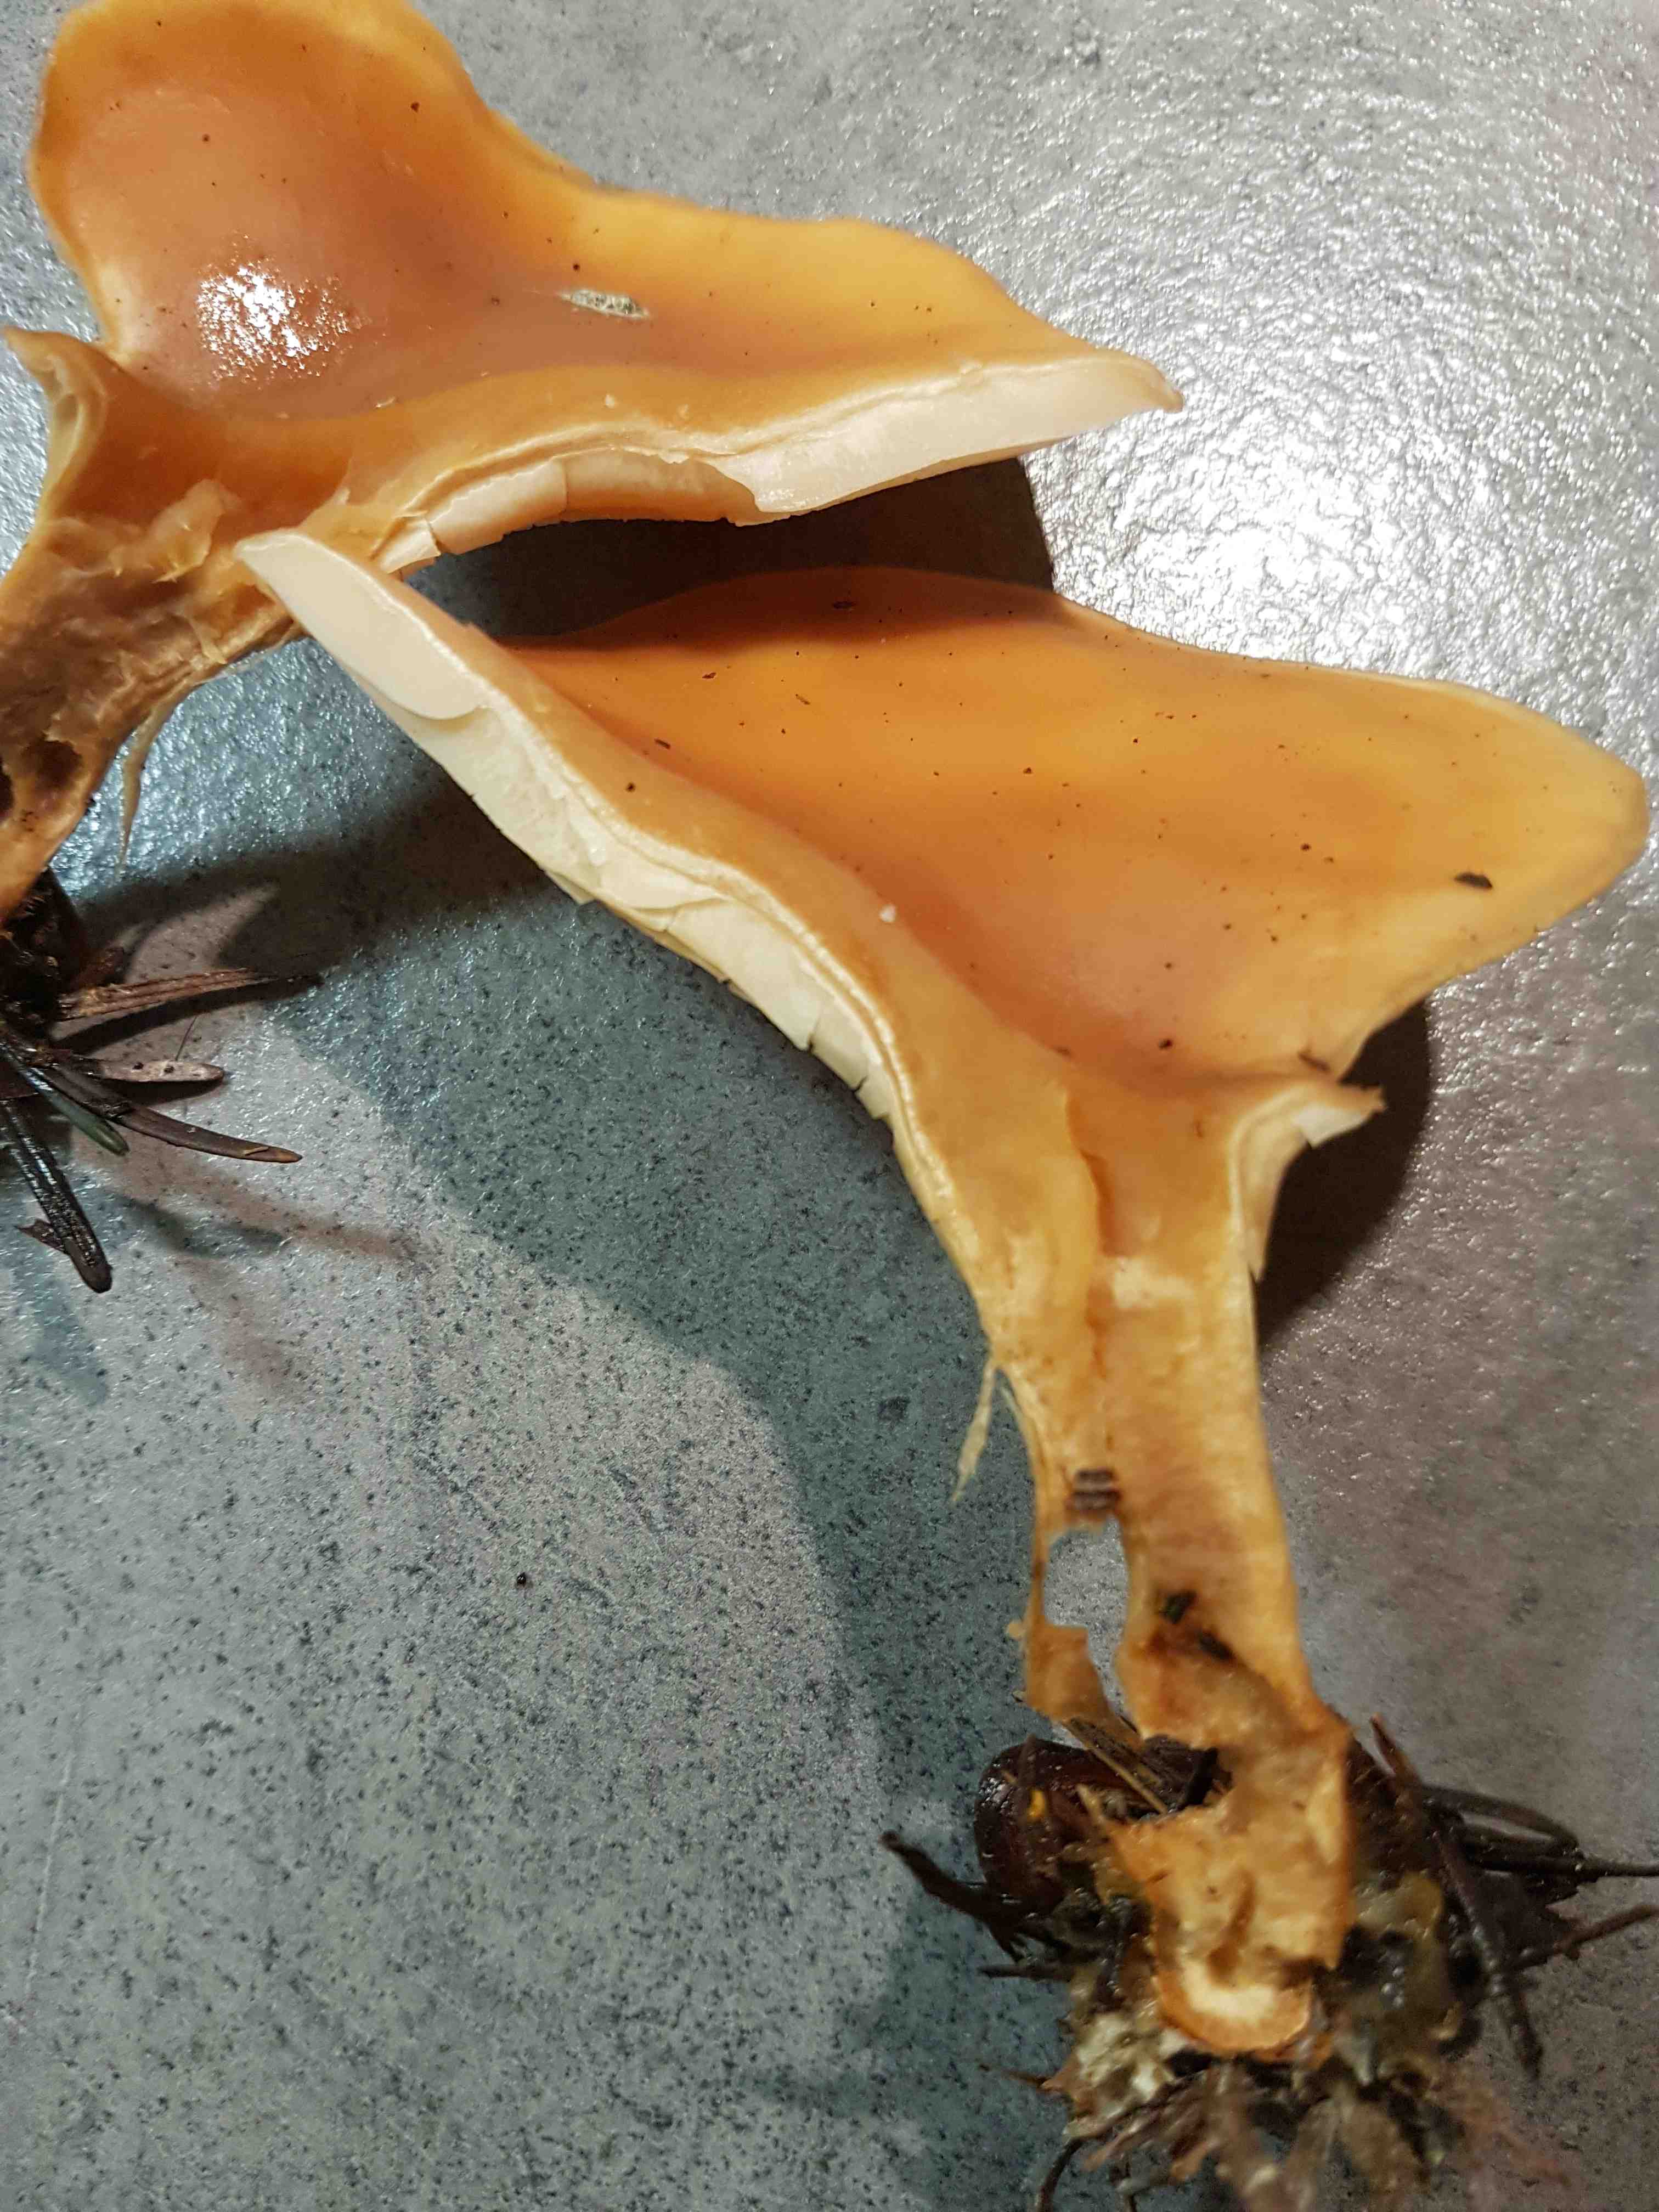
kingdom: Fungi
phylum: Basidiomycota
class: Agaricomycetes
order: Agaricales
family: Tricholomataceae
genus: Paralepista
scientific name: Paralepista flaccida
